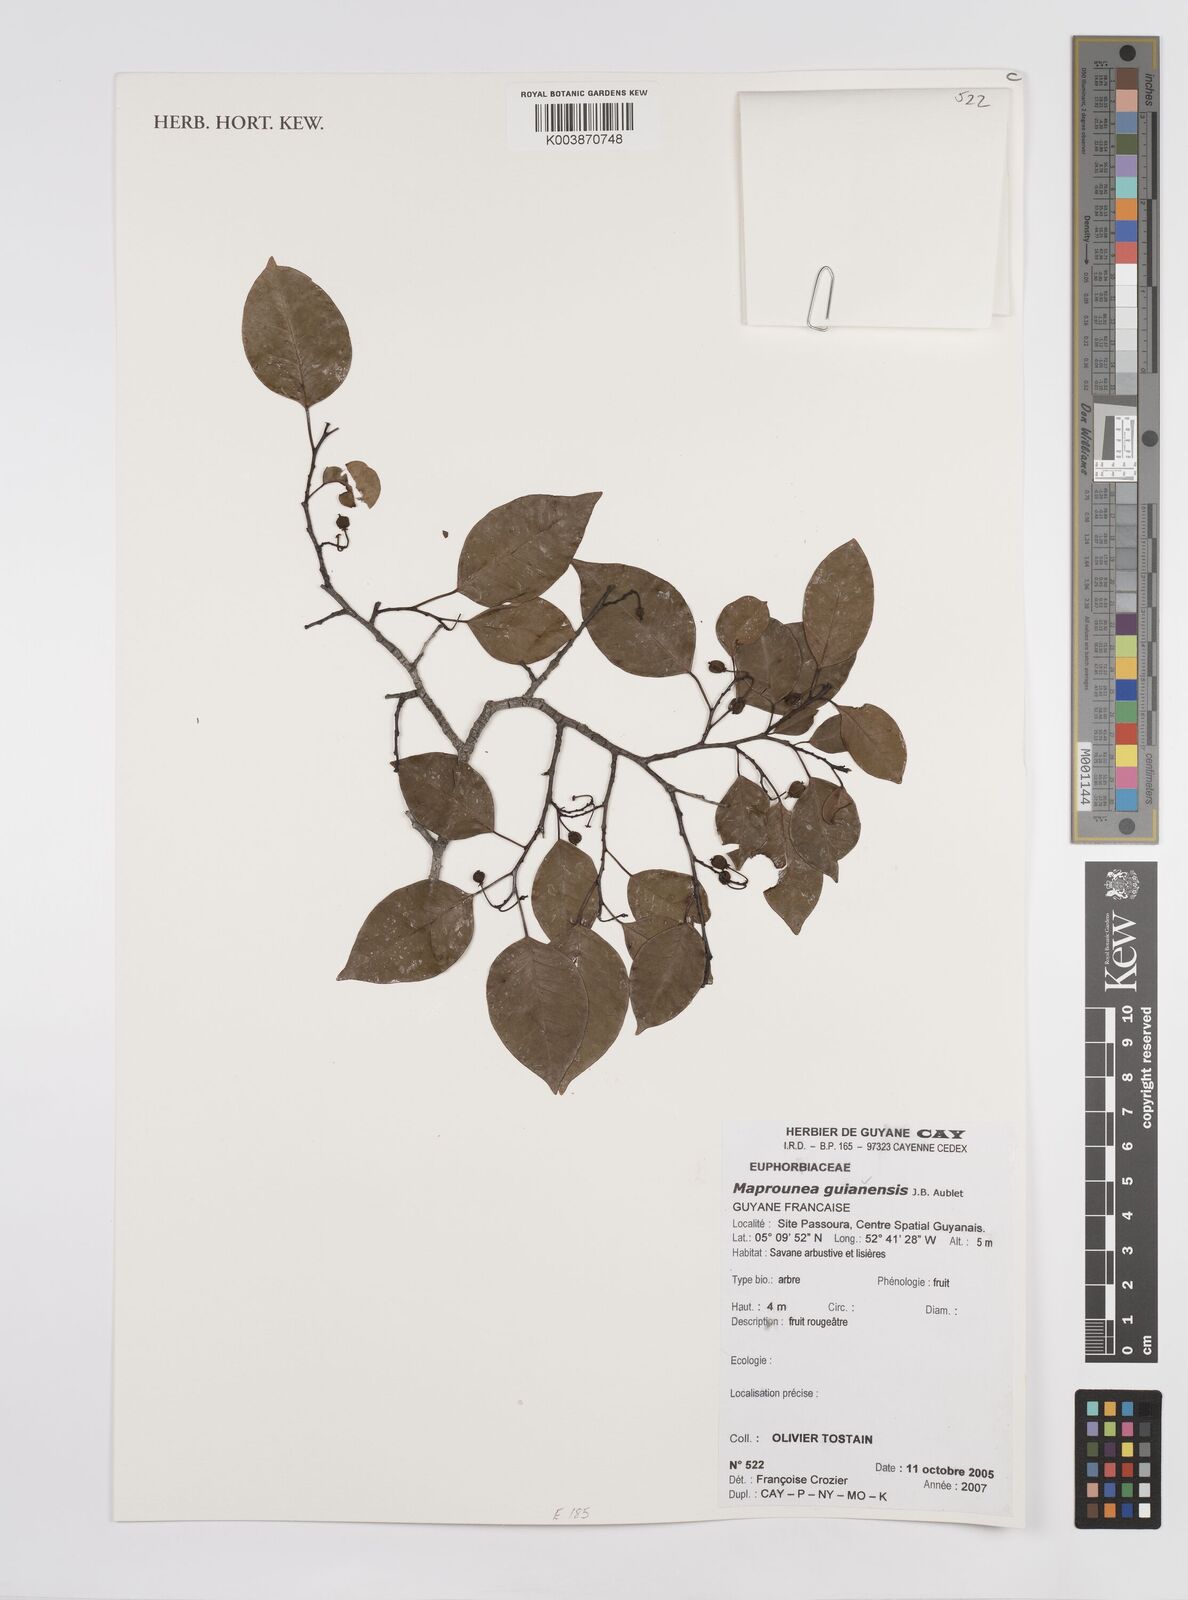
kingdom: Plantae
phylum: Tracheophyta
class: Magnoliopsida
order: Malpighiales
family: Euphorbiaceae
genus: Maprounea
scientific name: Maprounea guianensis
